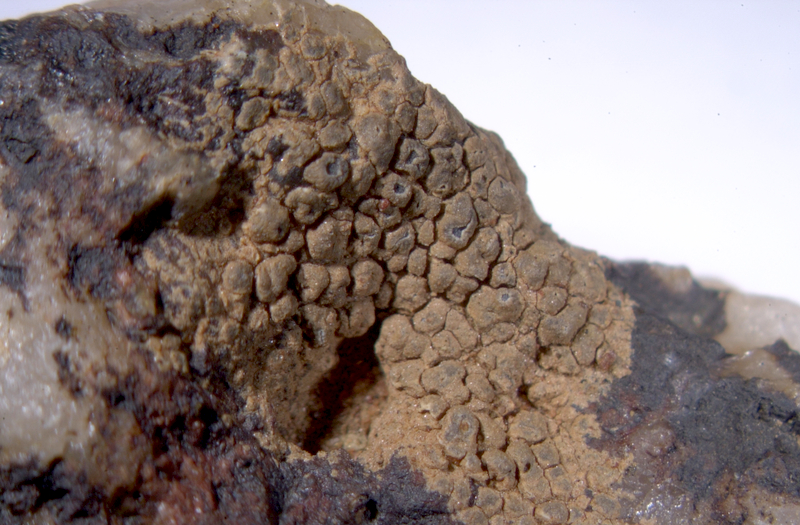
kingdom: Fungi
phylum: Ascomycota
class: Lecanoromycetes
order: Ostropales
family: Graphidaceae
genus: Diploschistes
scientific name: Diploschistes
